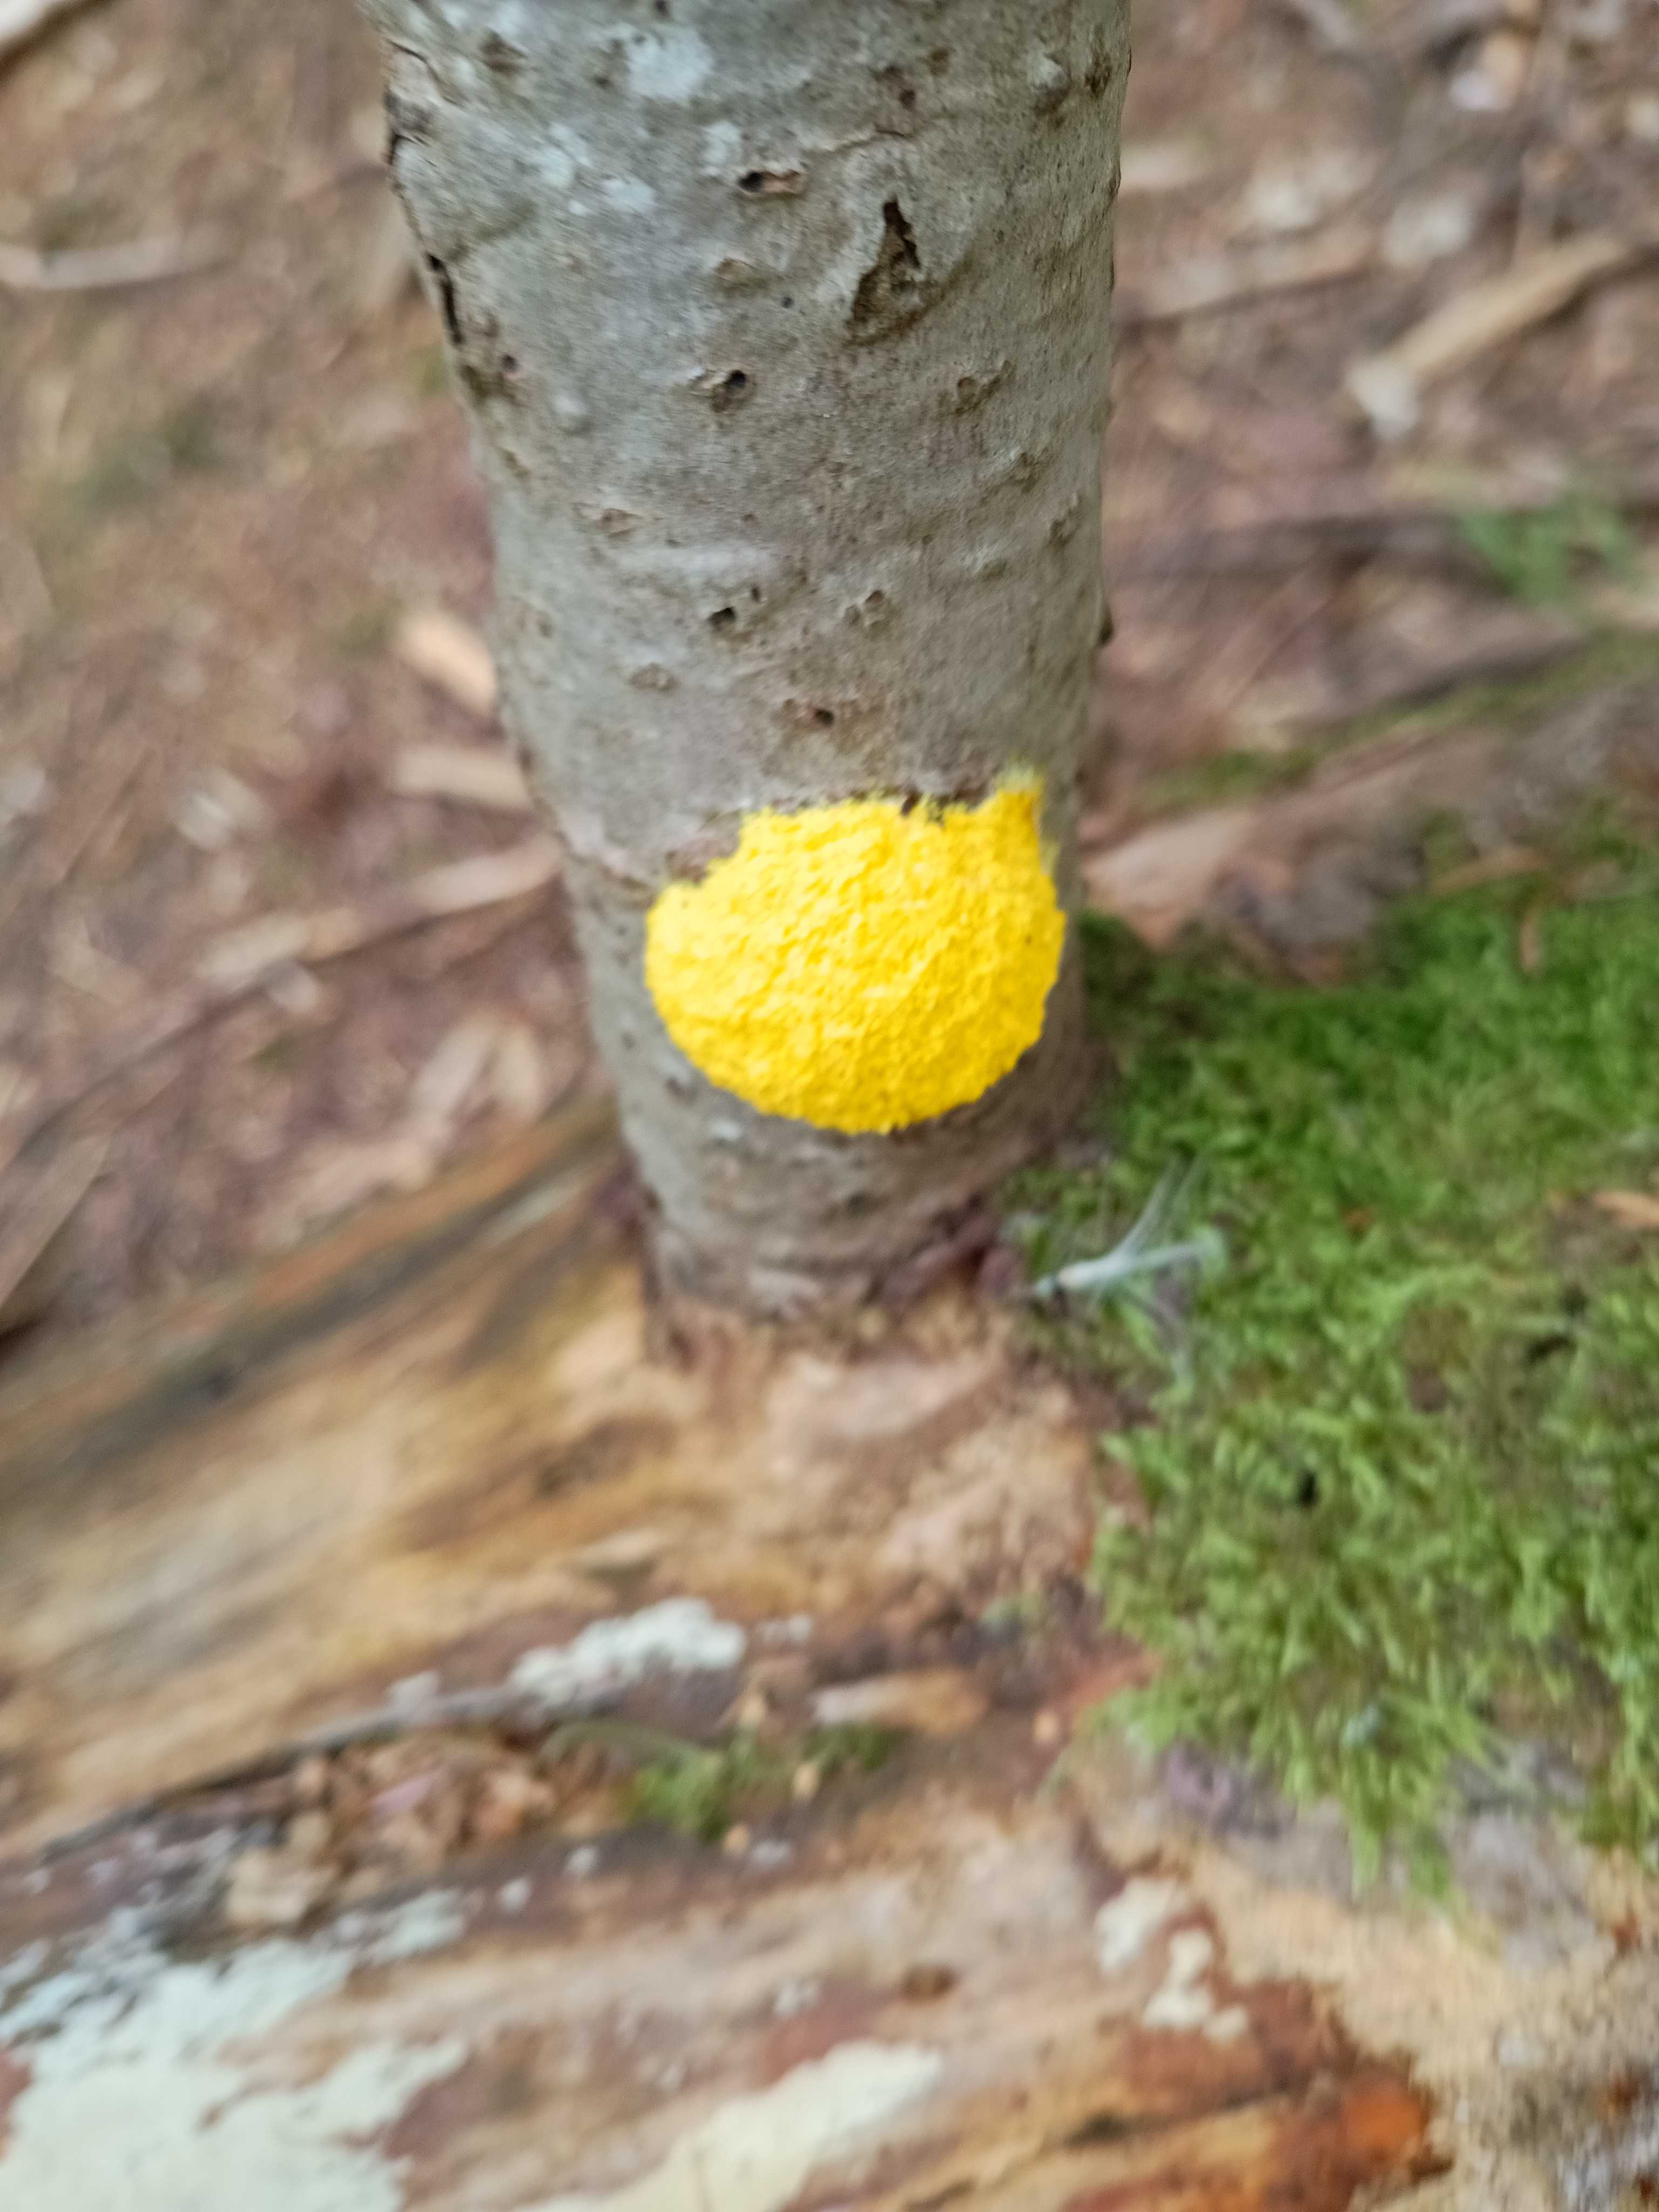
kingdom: Protozoa
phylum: Mycetozoa
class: Myxomycetes
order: Physarales
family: Physaraceae
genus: Fuligo
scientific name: Fuligo septica
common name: gul troldsmør
